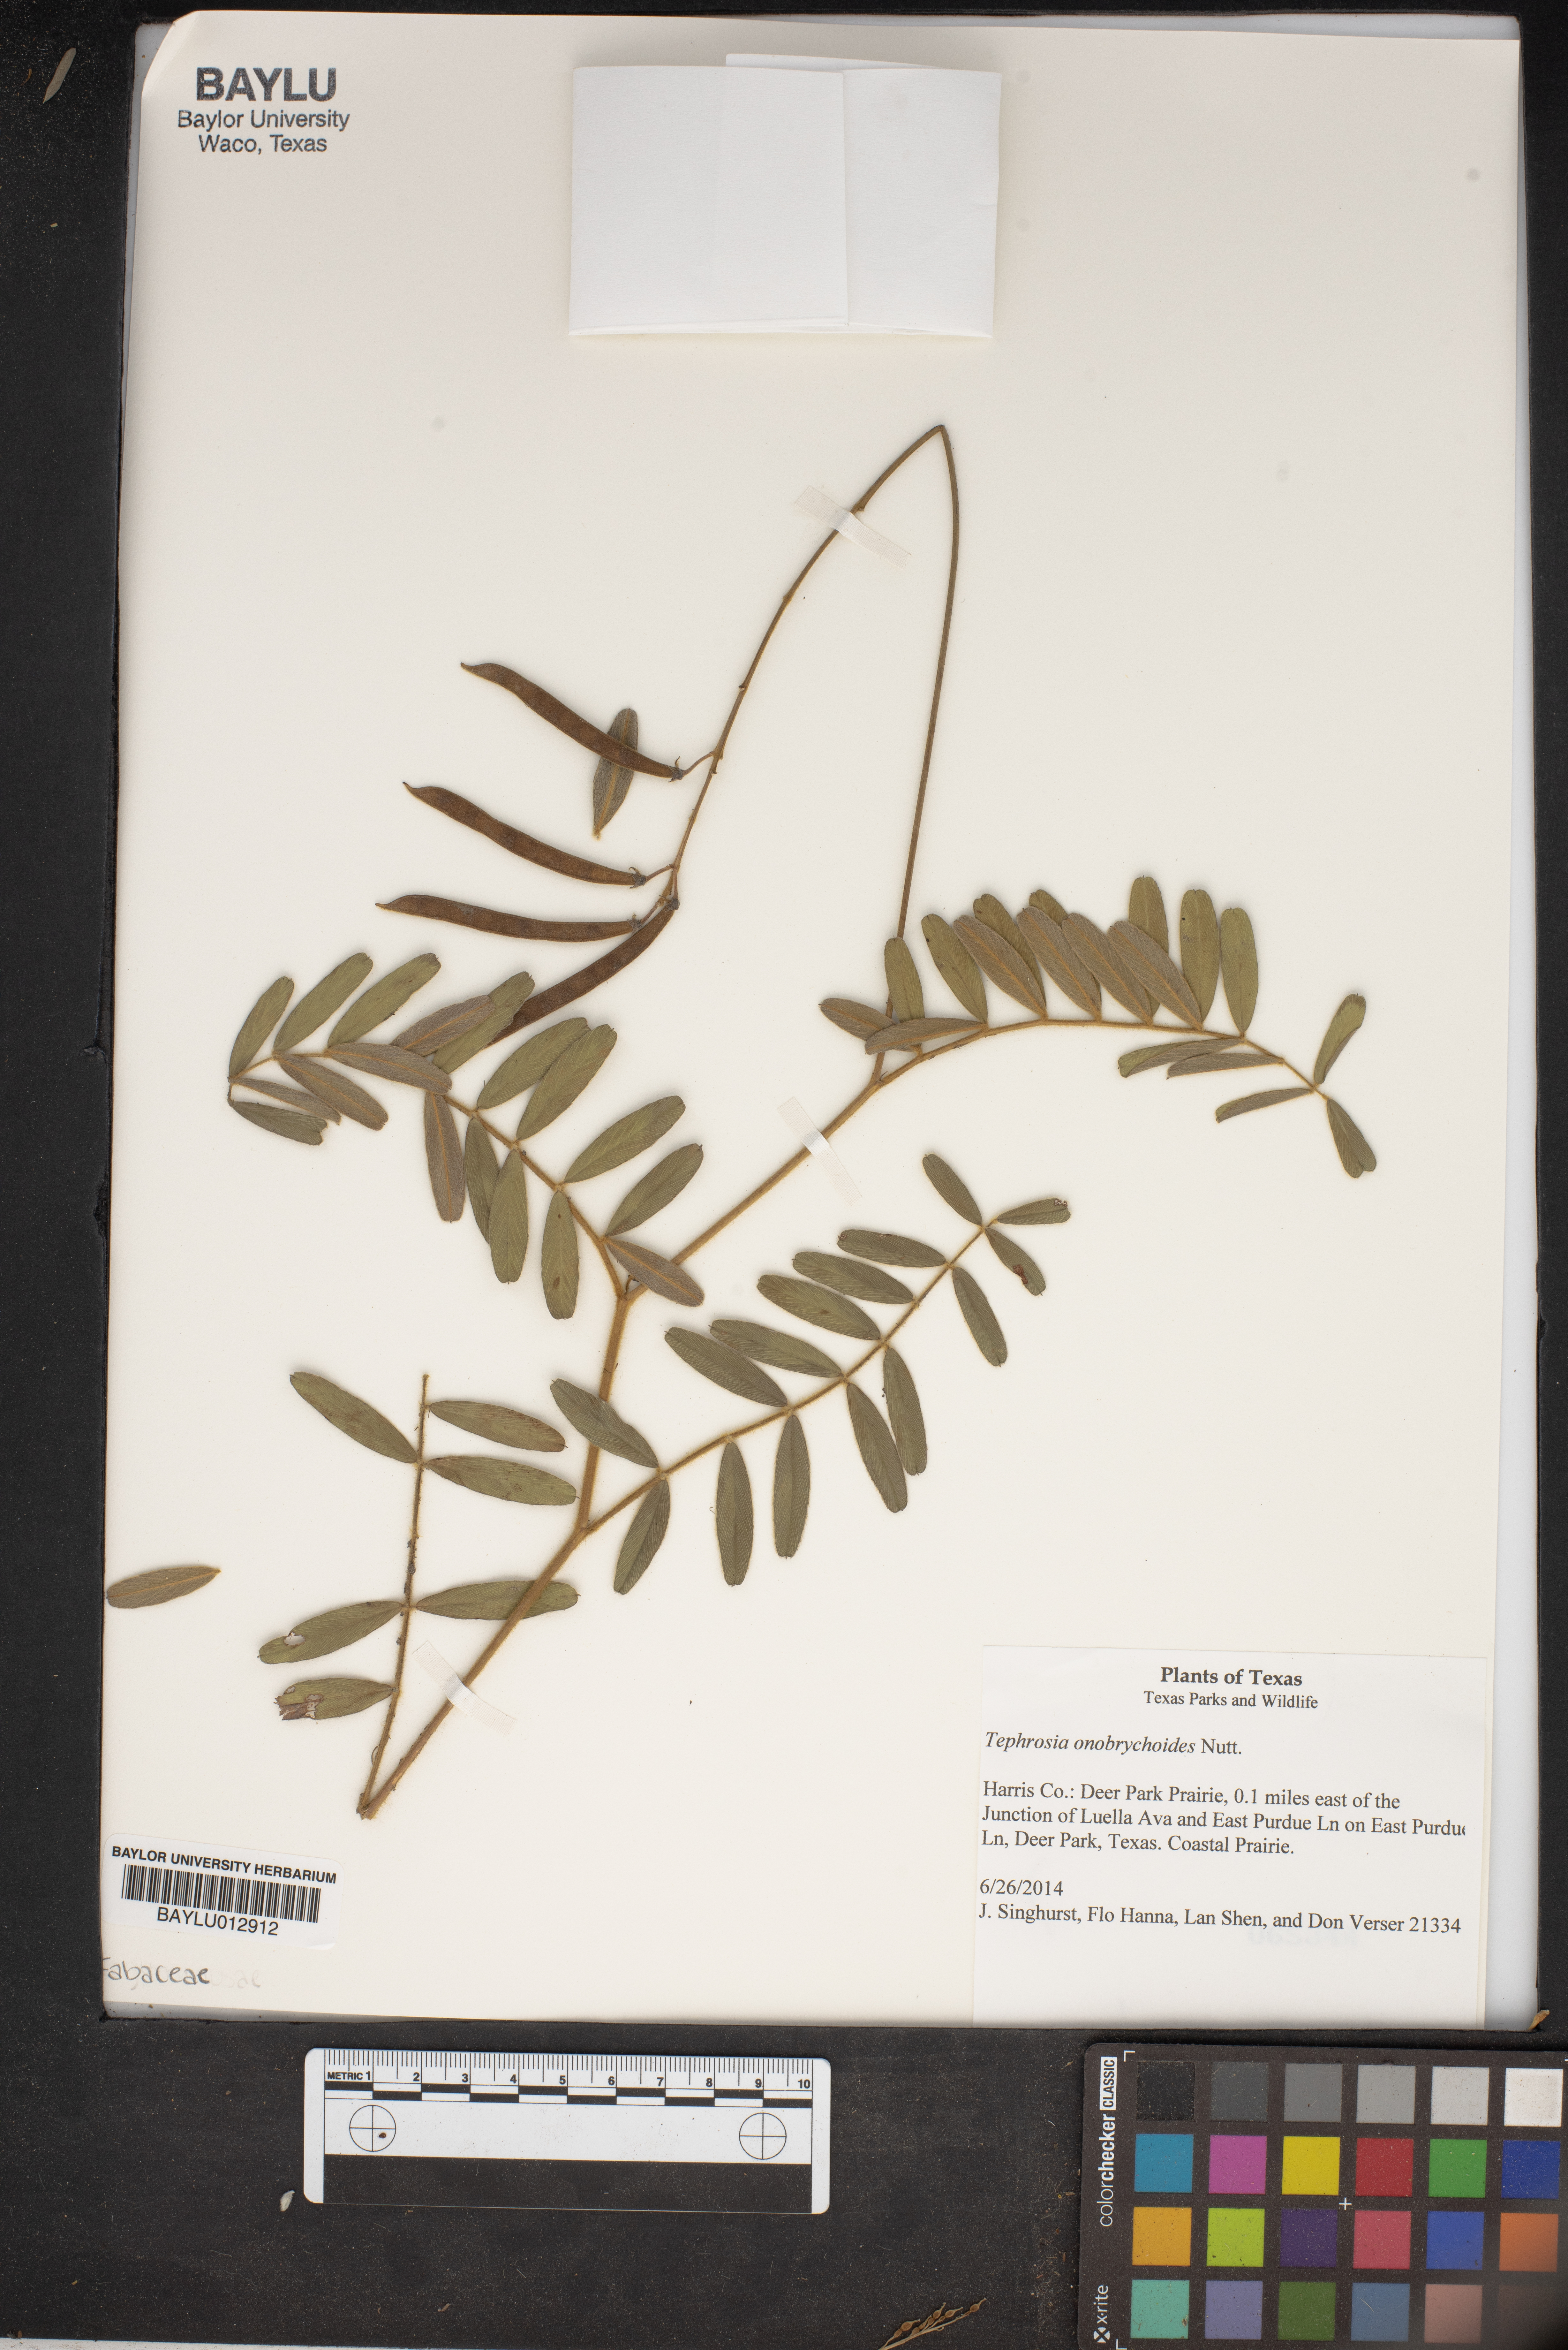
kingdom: Plantae
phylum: Tracheophyta
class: Magnoliopsida
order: Fabales
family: Fabaceae
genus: Tephrosia
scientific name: Tephrosia onobrychoides
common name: Multi-bloom hoary-pea
